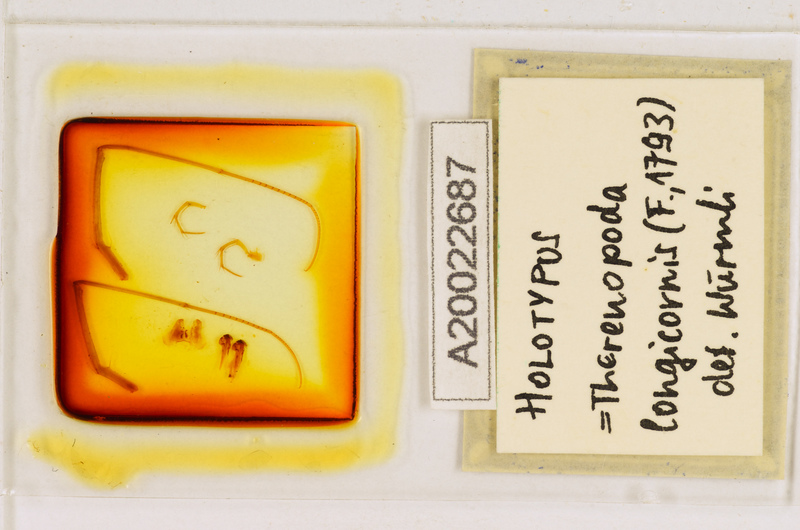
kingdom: Animalia
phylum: Arthropoda
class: Chilopoda
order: Scutigeromorpha
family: Scutigeridae
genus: Thereuopoda
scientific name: Thereuopoda longicornis
